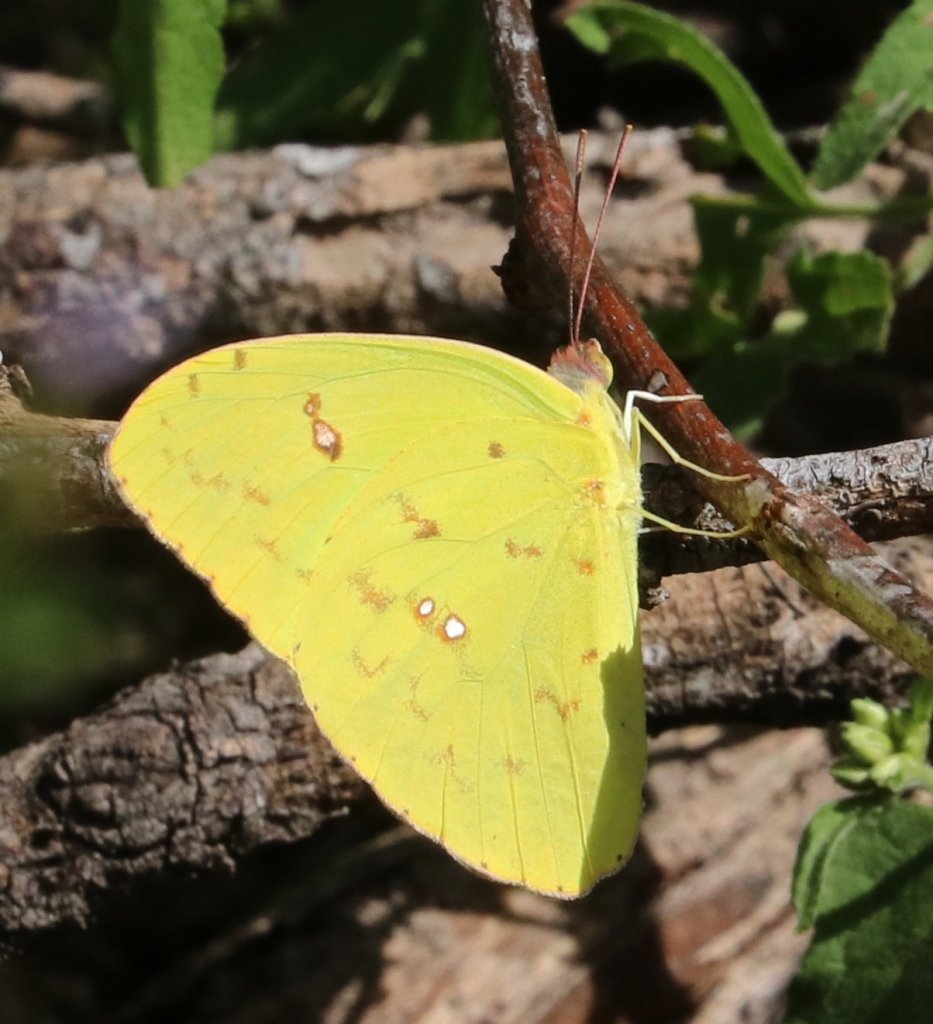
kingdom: Animalia
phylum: Arthropoda
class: Insecta
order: Lepidoptera
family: Pieridae
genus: Phoebis
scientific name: Phoebis sennae
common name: Cloudless Sulphur
